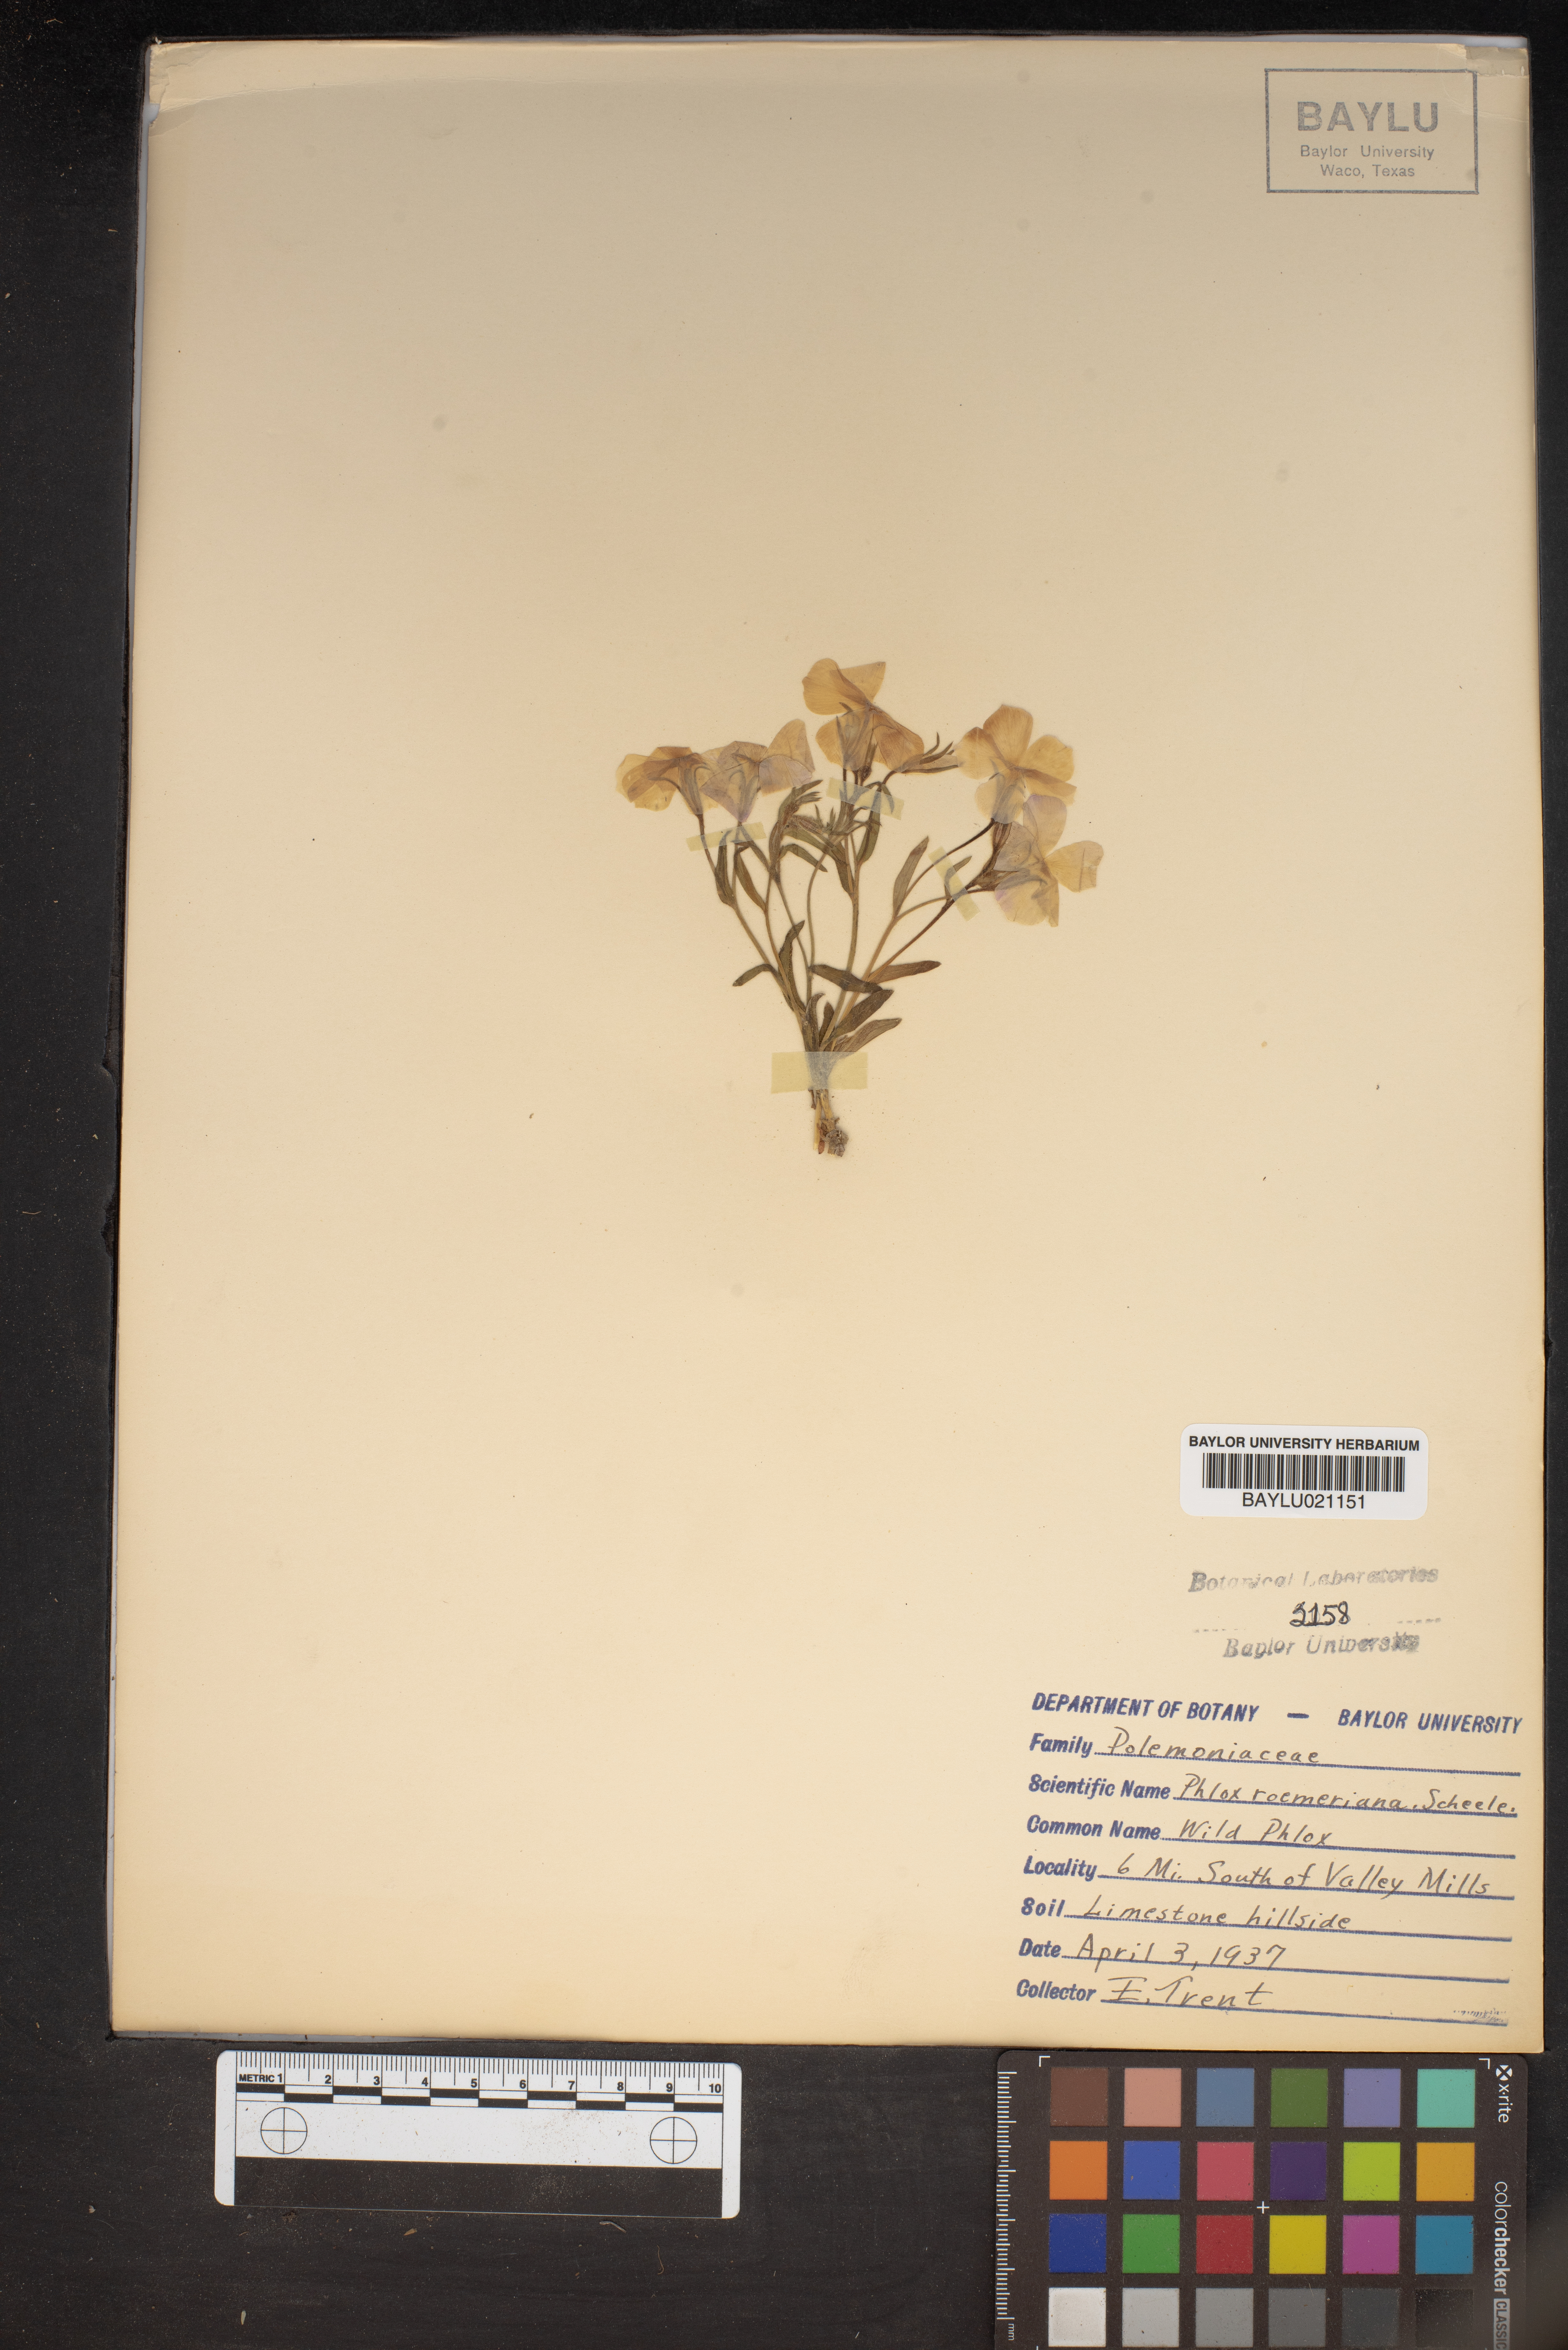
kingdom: Plantae
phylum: Tracheophyta
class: Magnoliopsida
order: Ericales
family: Polemoniaceae
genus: Phlox
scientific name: Phlox roemeriana
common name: Roemer's phlox
